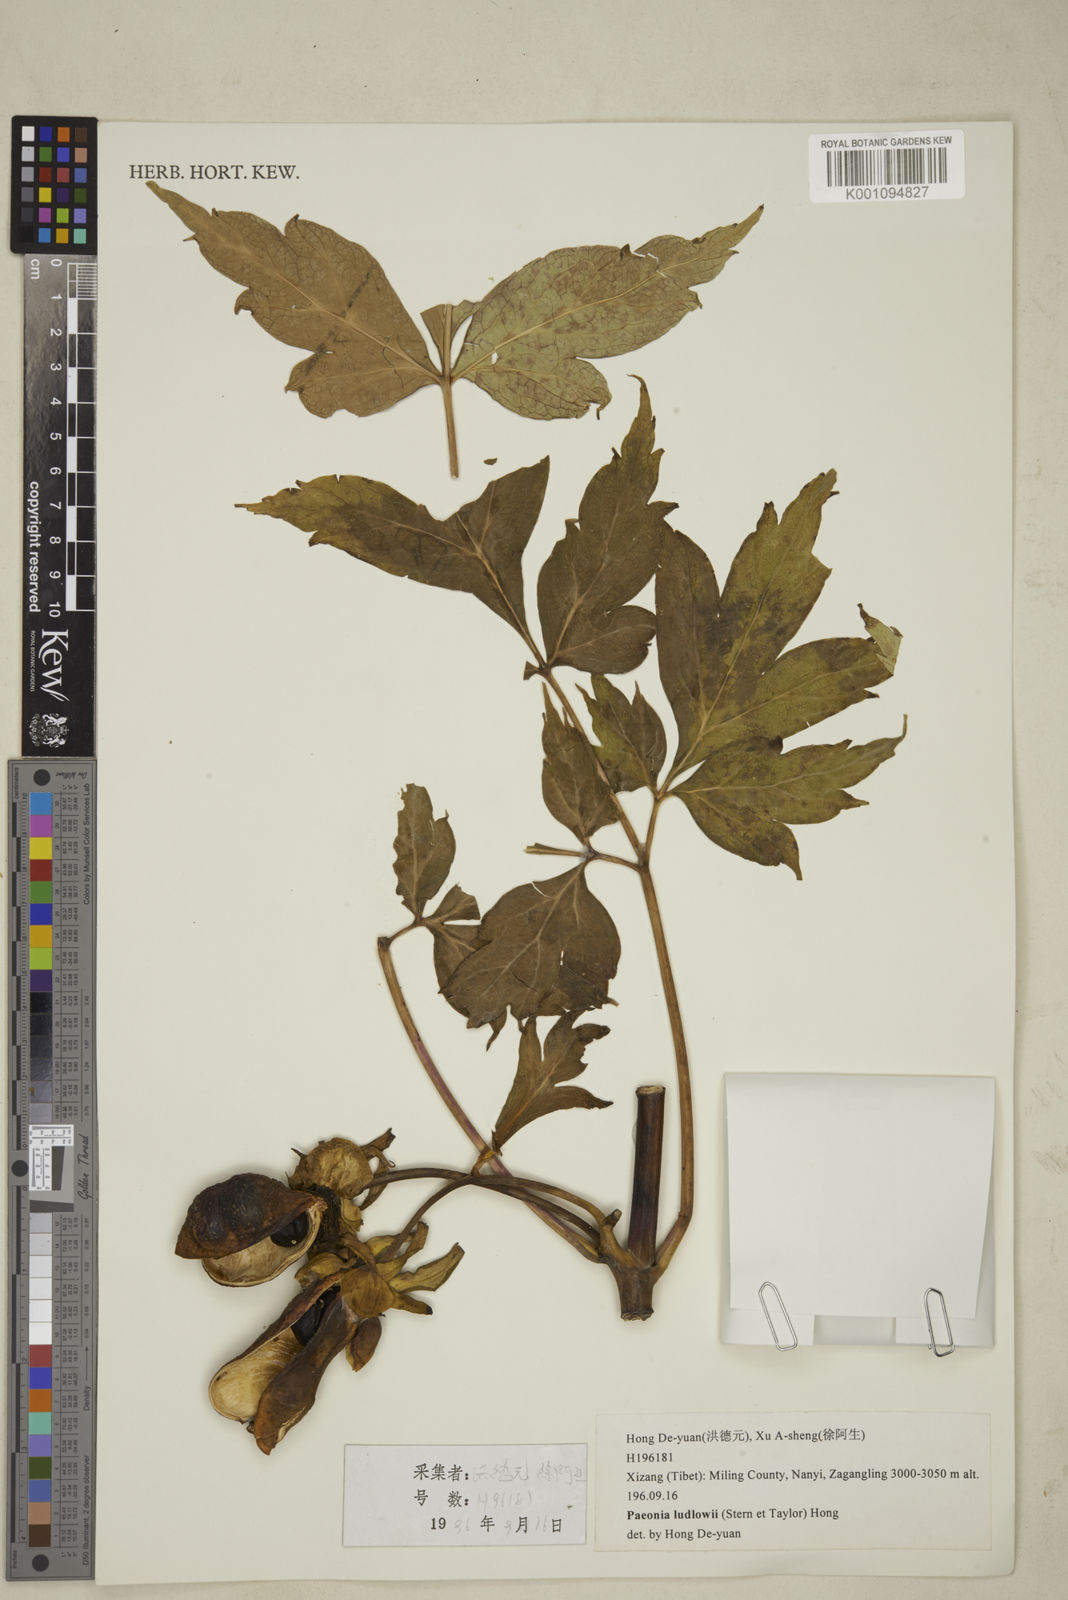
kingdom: Plantae
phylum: Tracheophyta
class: Magnoliopsida
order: Saxifragales
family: Paeoniaceae
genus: Paeonia
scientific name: Paeonia delavayi
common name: Dian mu dan
